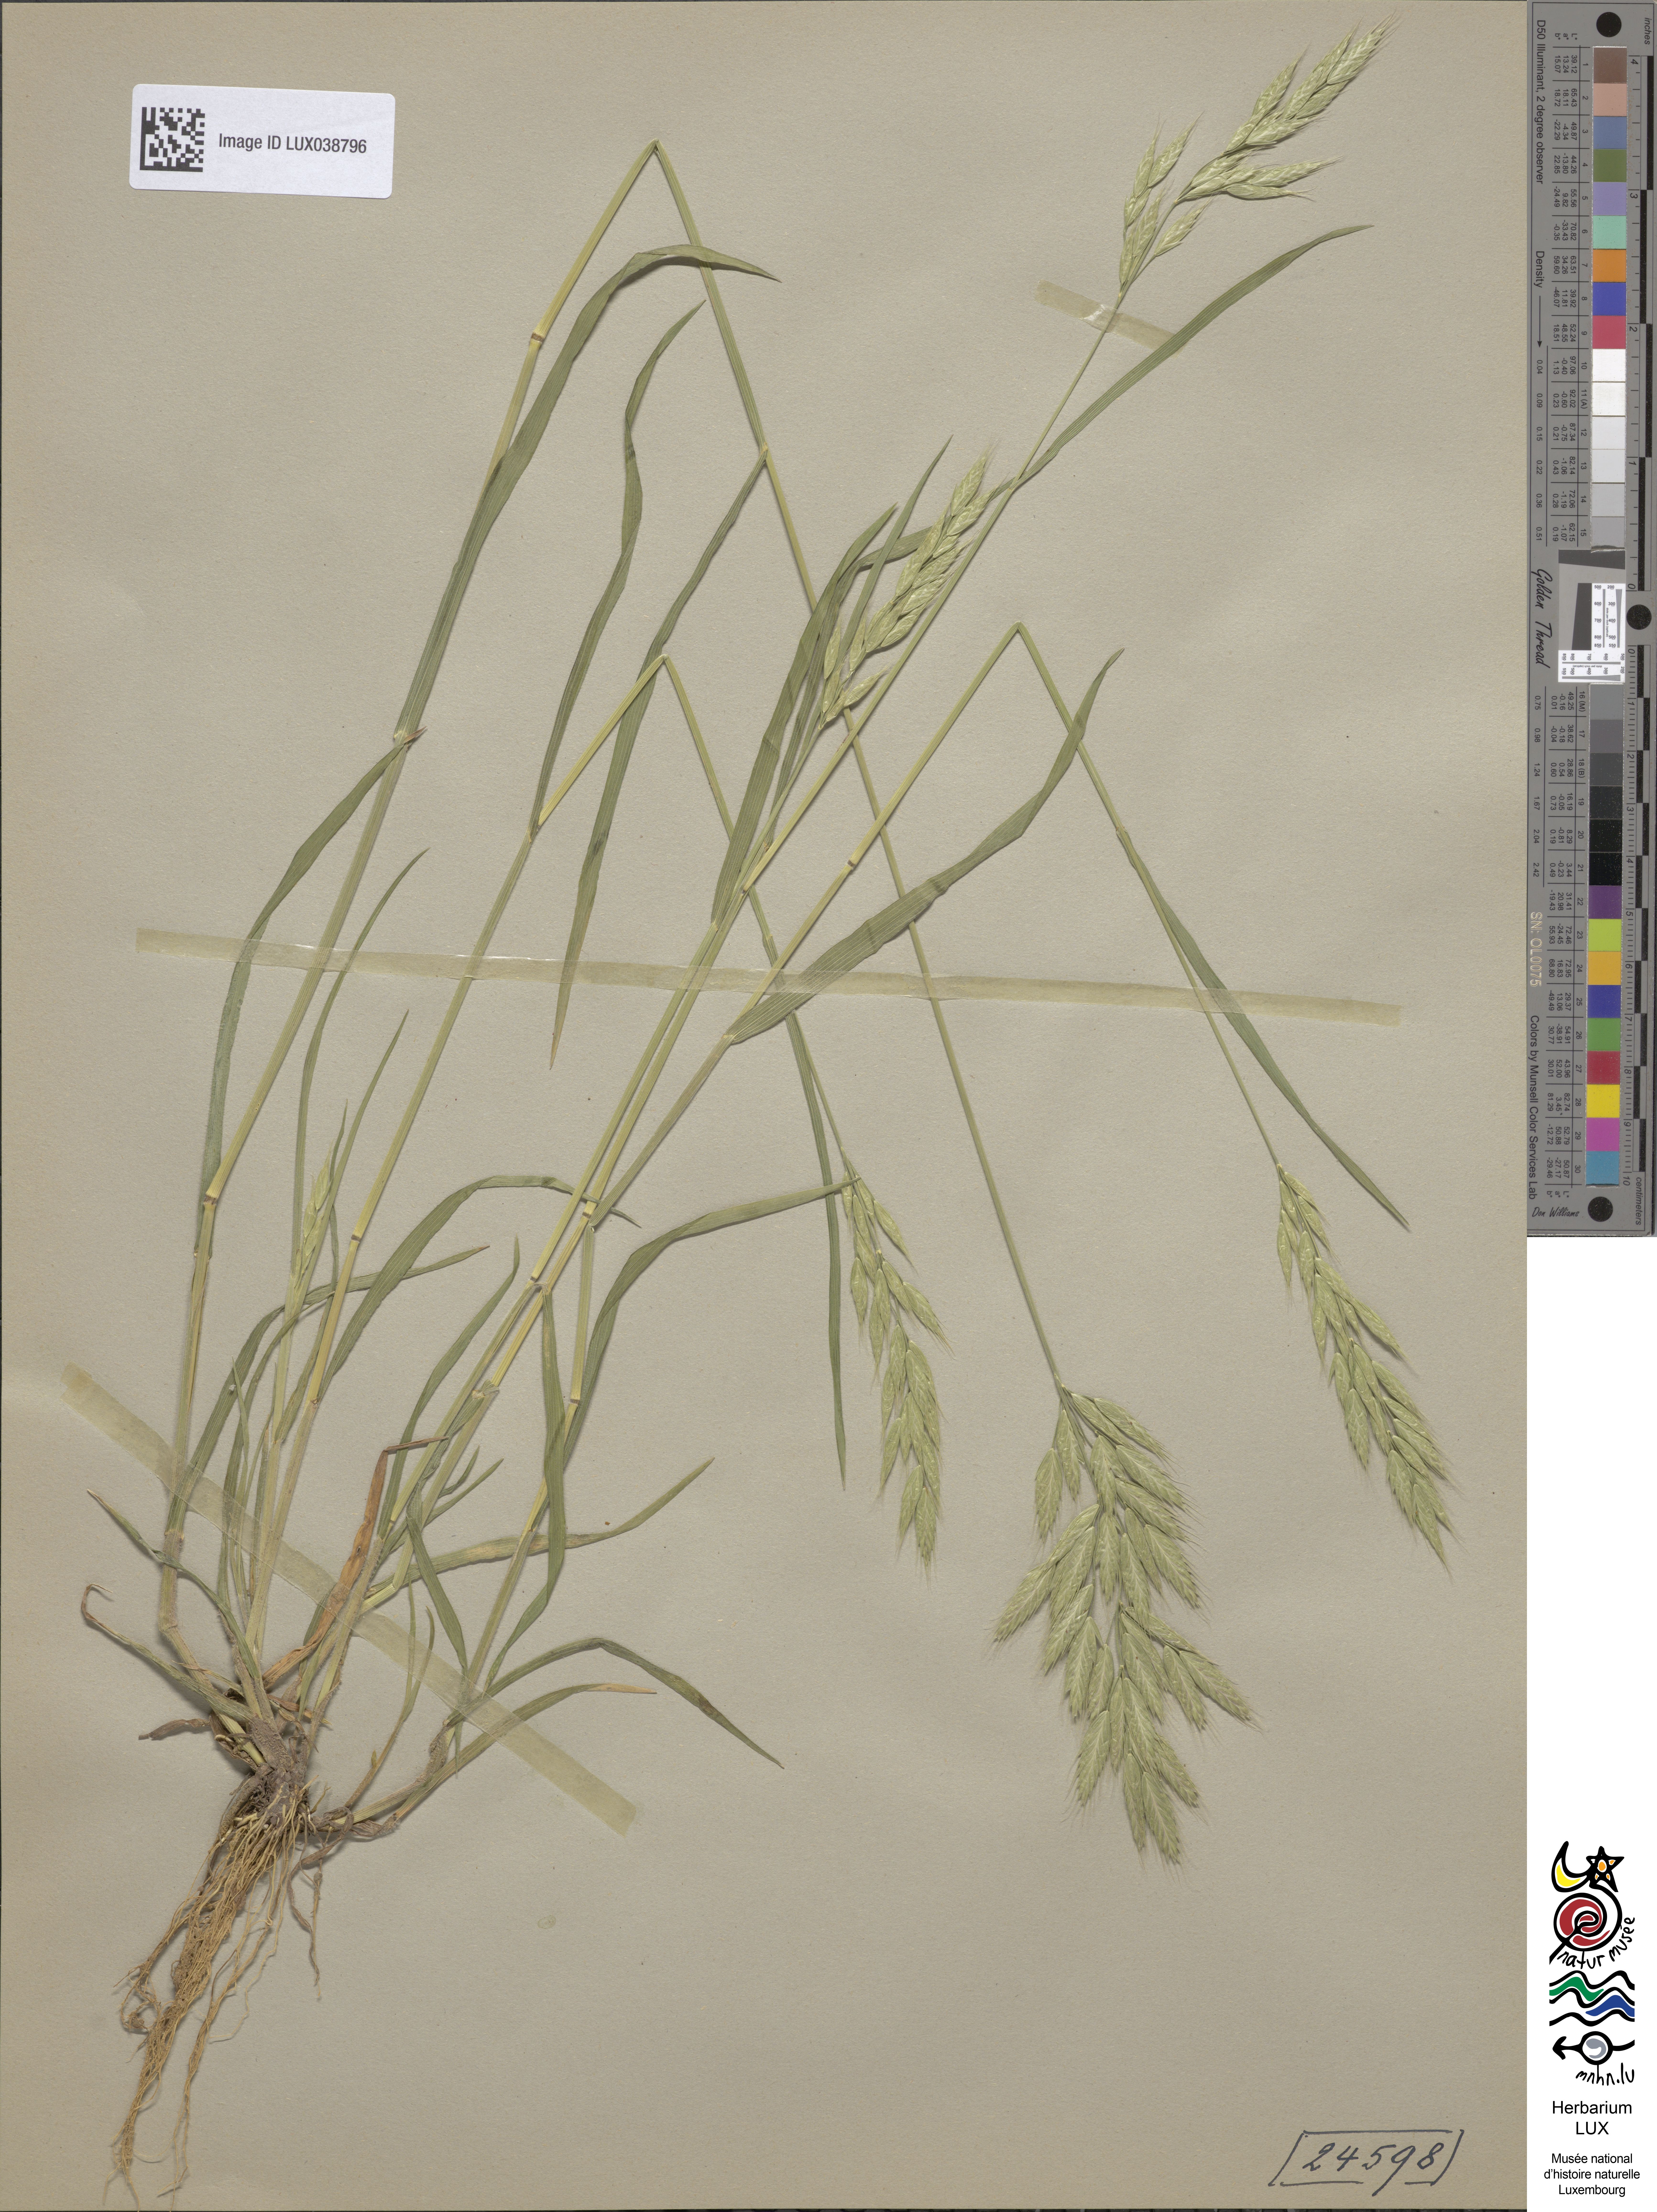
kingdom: Plantae
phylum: Tracheophyta
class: Liliopsida
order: Poales
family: Poaceae
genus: Bromus
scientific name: Bromus hordeaceus
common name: Soft brome
